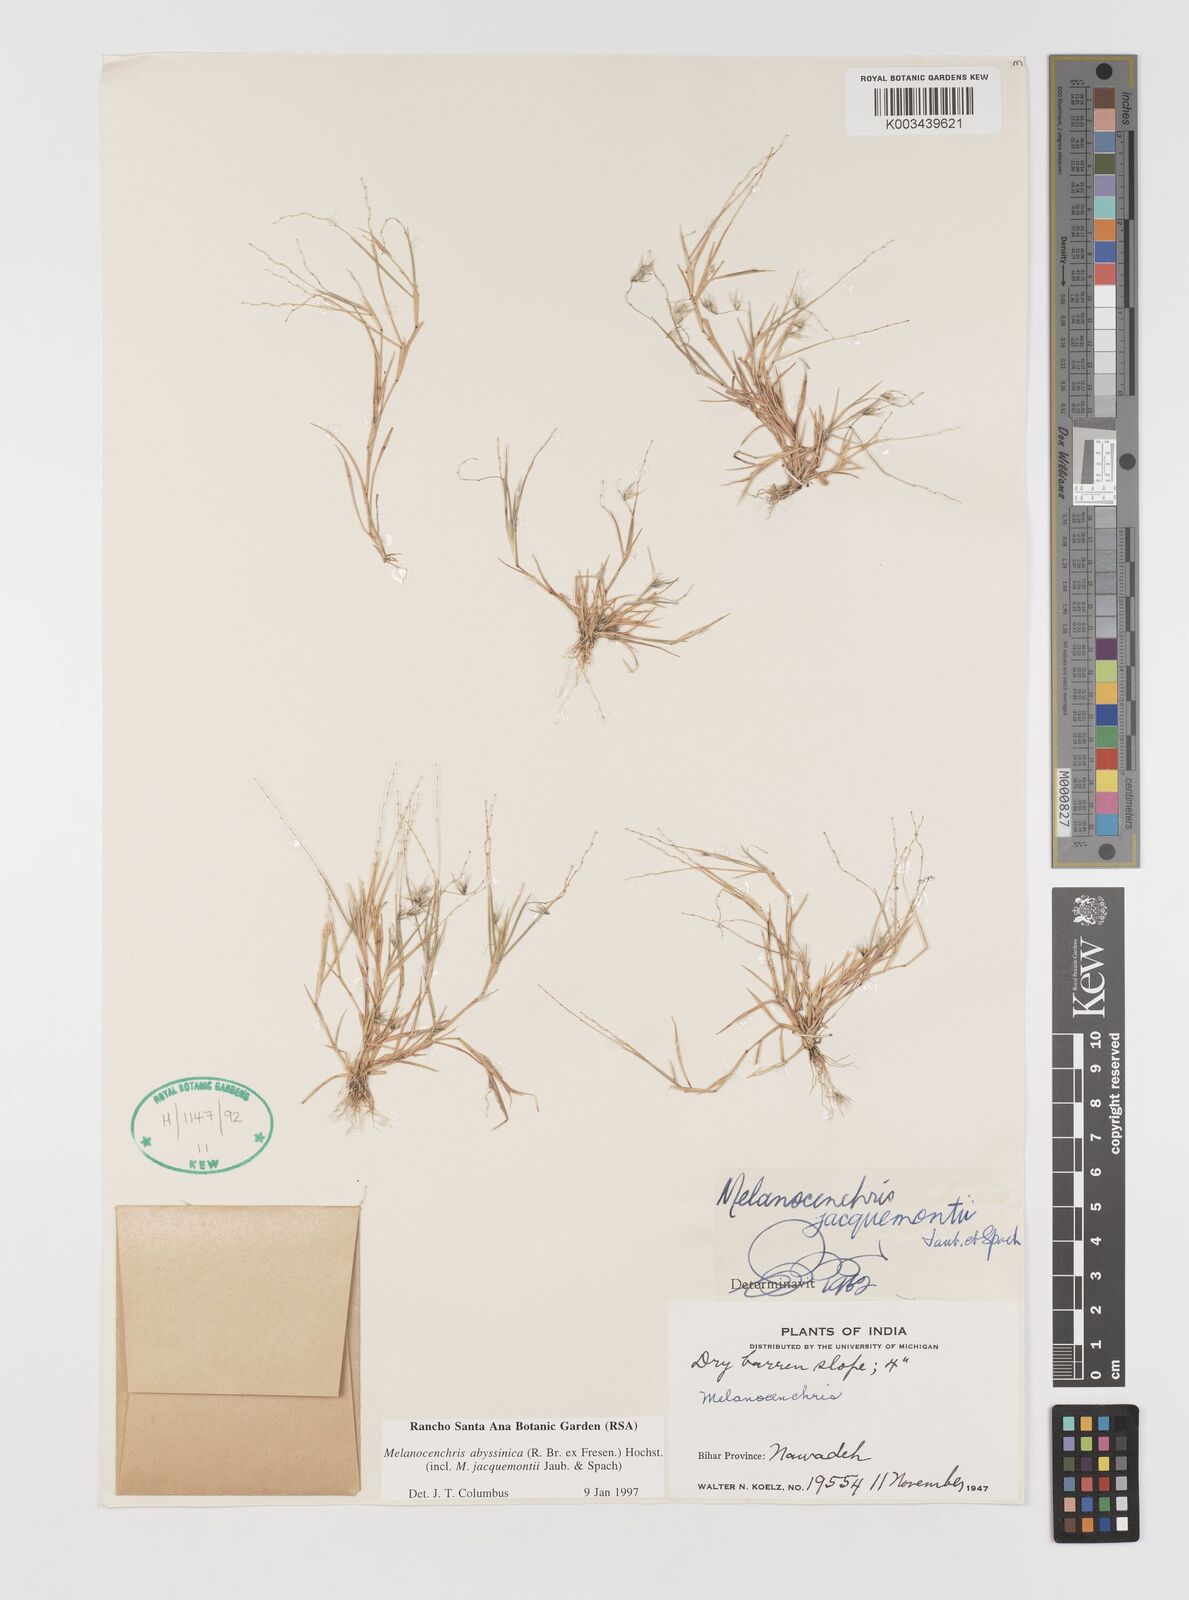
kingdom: Plantae
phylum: Tracheophyta
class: Liliopsida
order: Poales
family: Poaceae
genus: Melanocenchris
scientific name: Melanocenchris abyssinica
